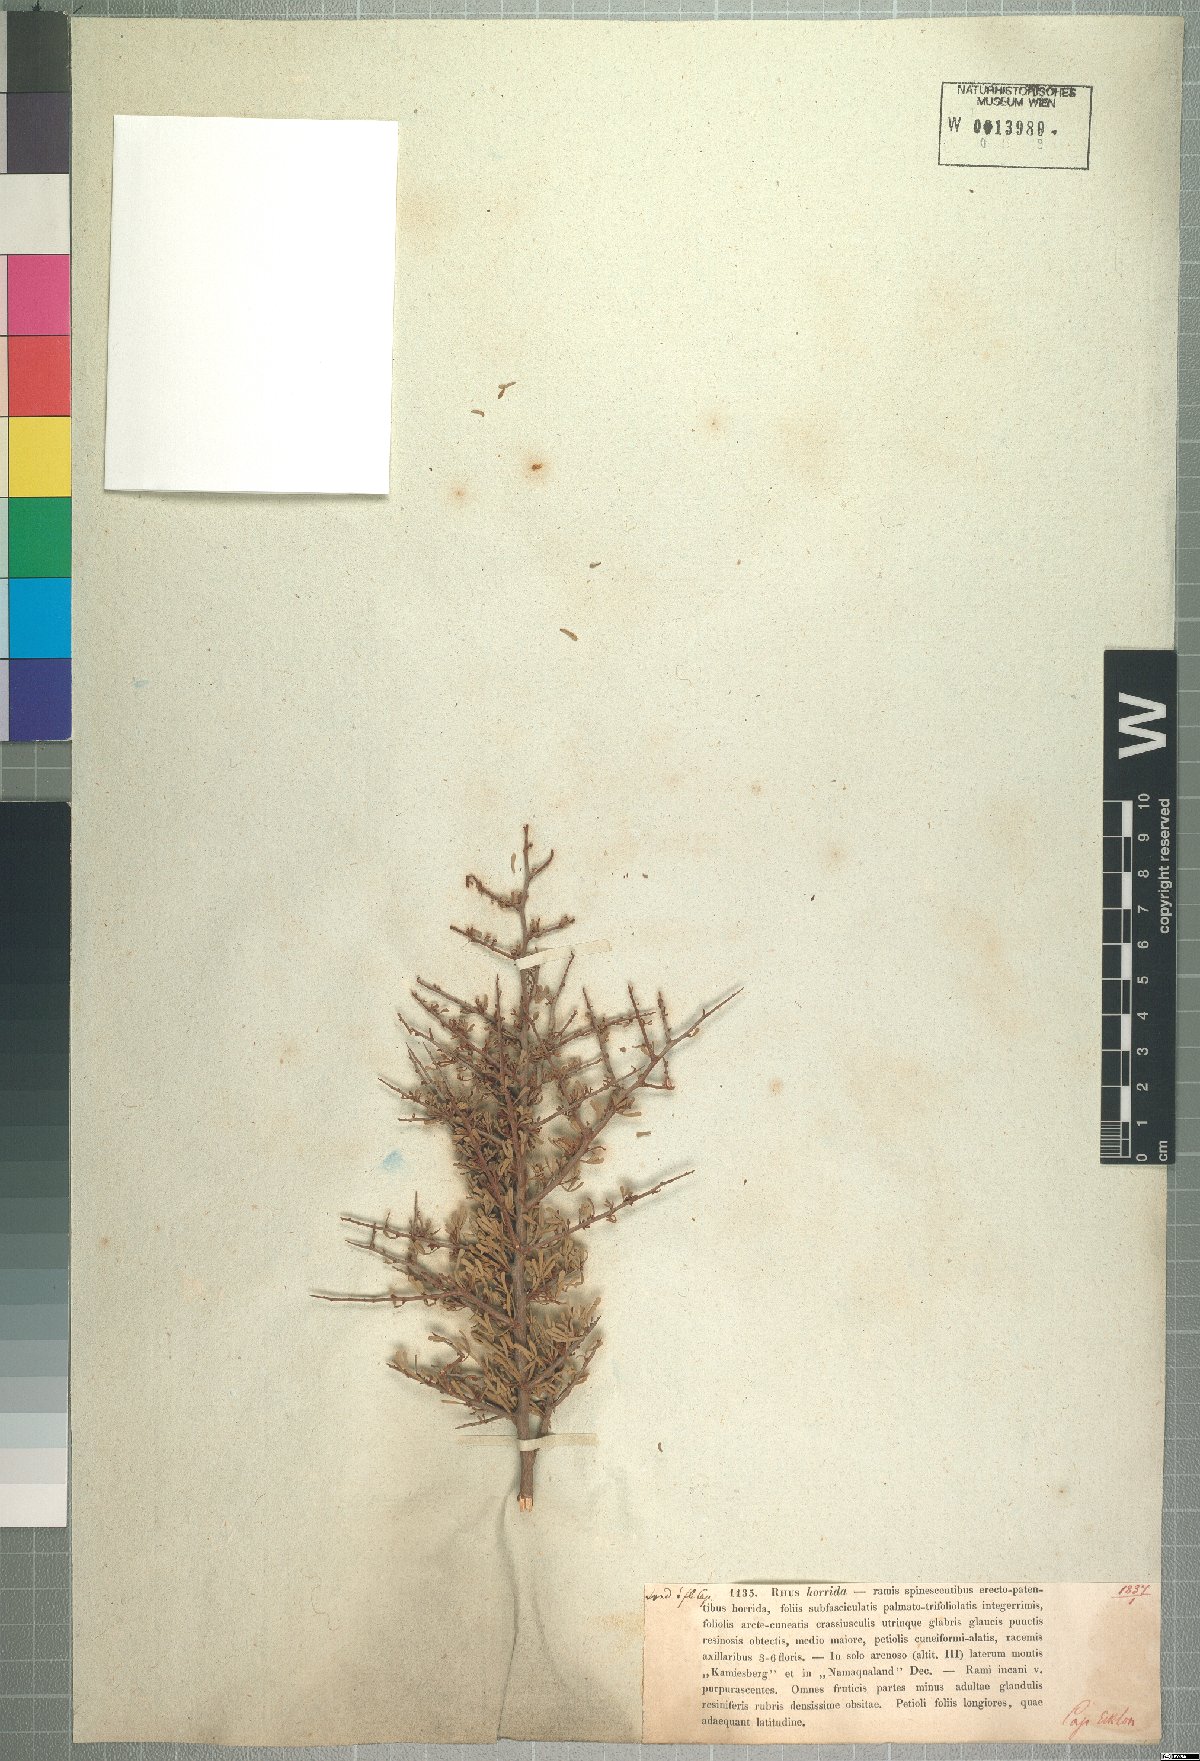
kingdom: Plantae
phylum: Tracheophyta
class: Magnoliopsida
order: Sapindales
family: Anacardiaceae
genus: Searsia
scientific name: Searsia horrida
